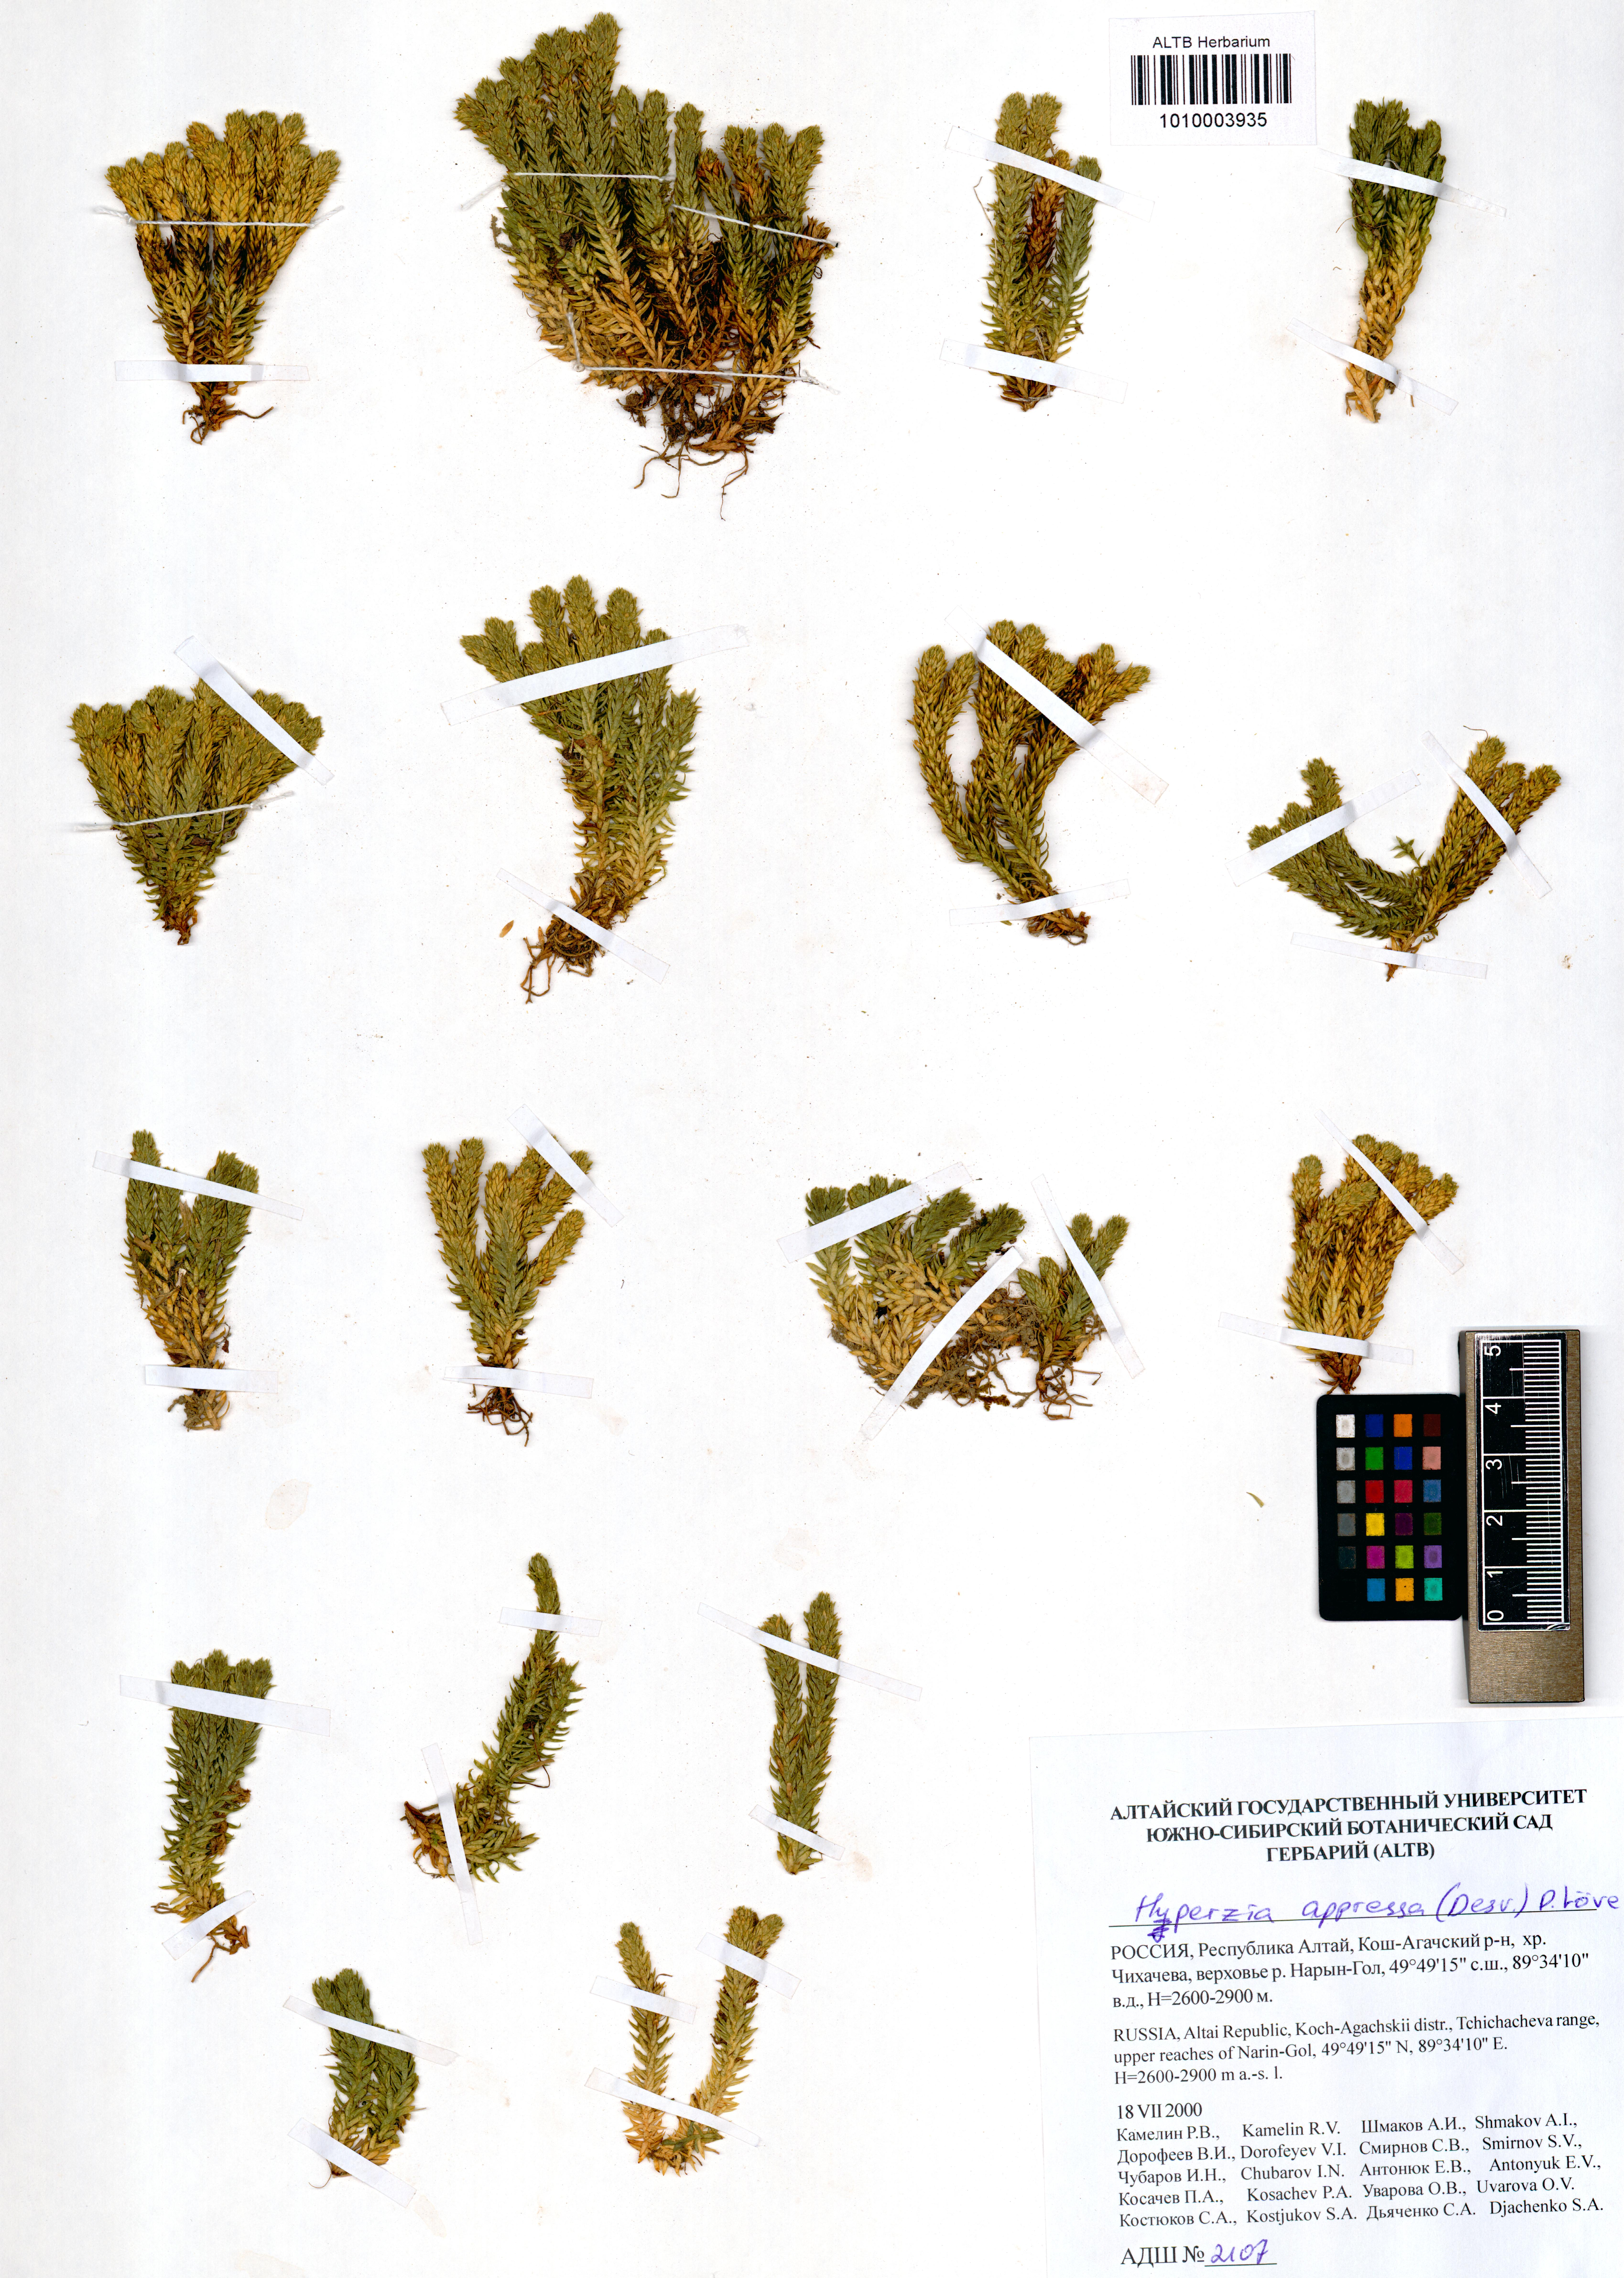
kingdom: Plantae
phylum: Tracheophyta
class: Lycopodiopsida
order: Lycopodiales
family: Lycopodiaceae
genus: Huperzia
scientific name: Huperzia selago
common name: Northern firmoss
